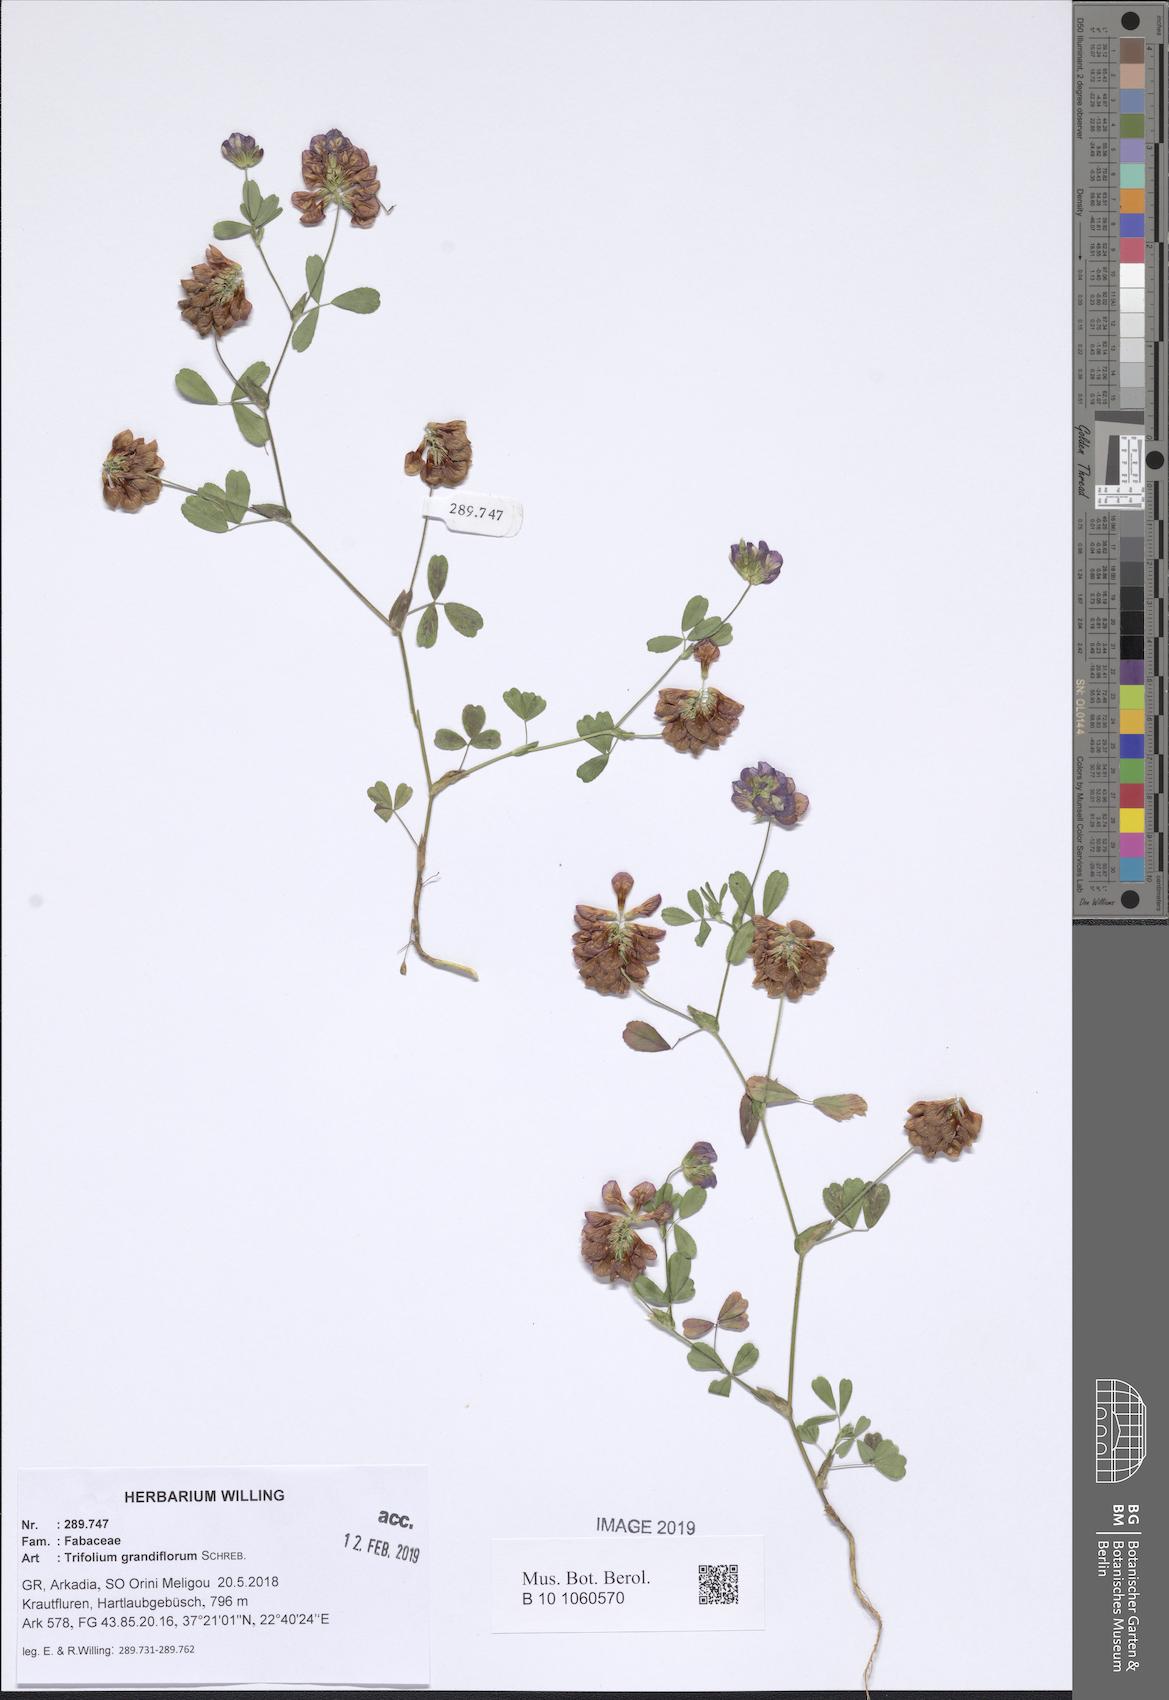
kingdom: Plantae
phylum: Tracheophyta
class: Magnoliopsida
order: Fabales
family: Fabaceae
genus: Trifolium
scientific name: Trifolium grandiflorum
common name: Large-flower hop clover
